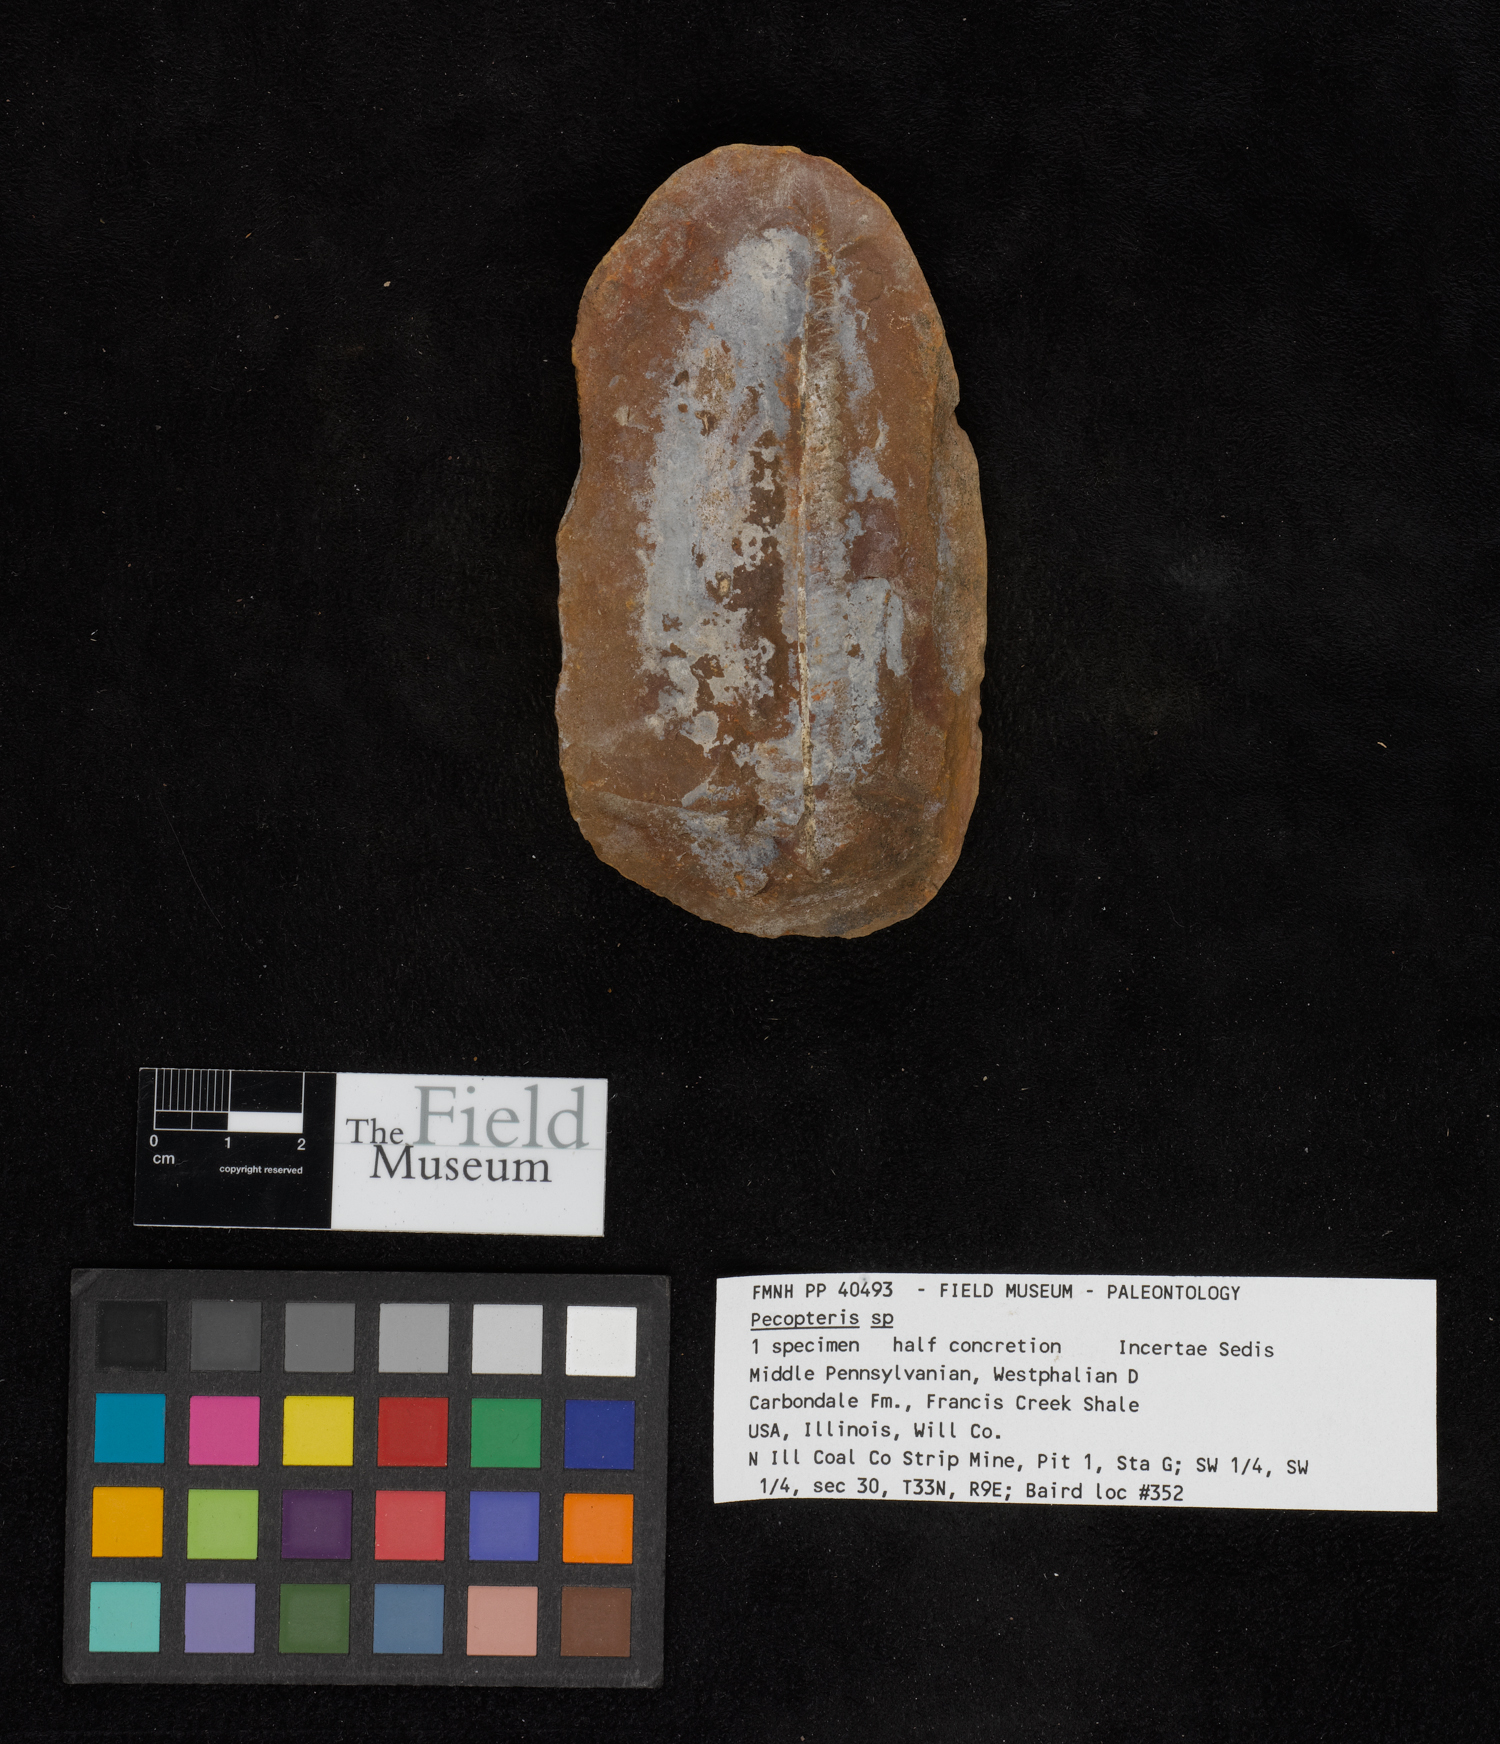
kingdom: Plantae
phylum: Tracheophyta
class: Polypodiopsida
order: Marattiales
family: Asterothecaceae
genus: Pecopteris
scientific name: Pecopteris
